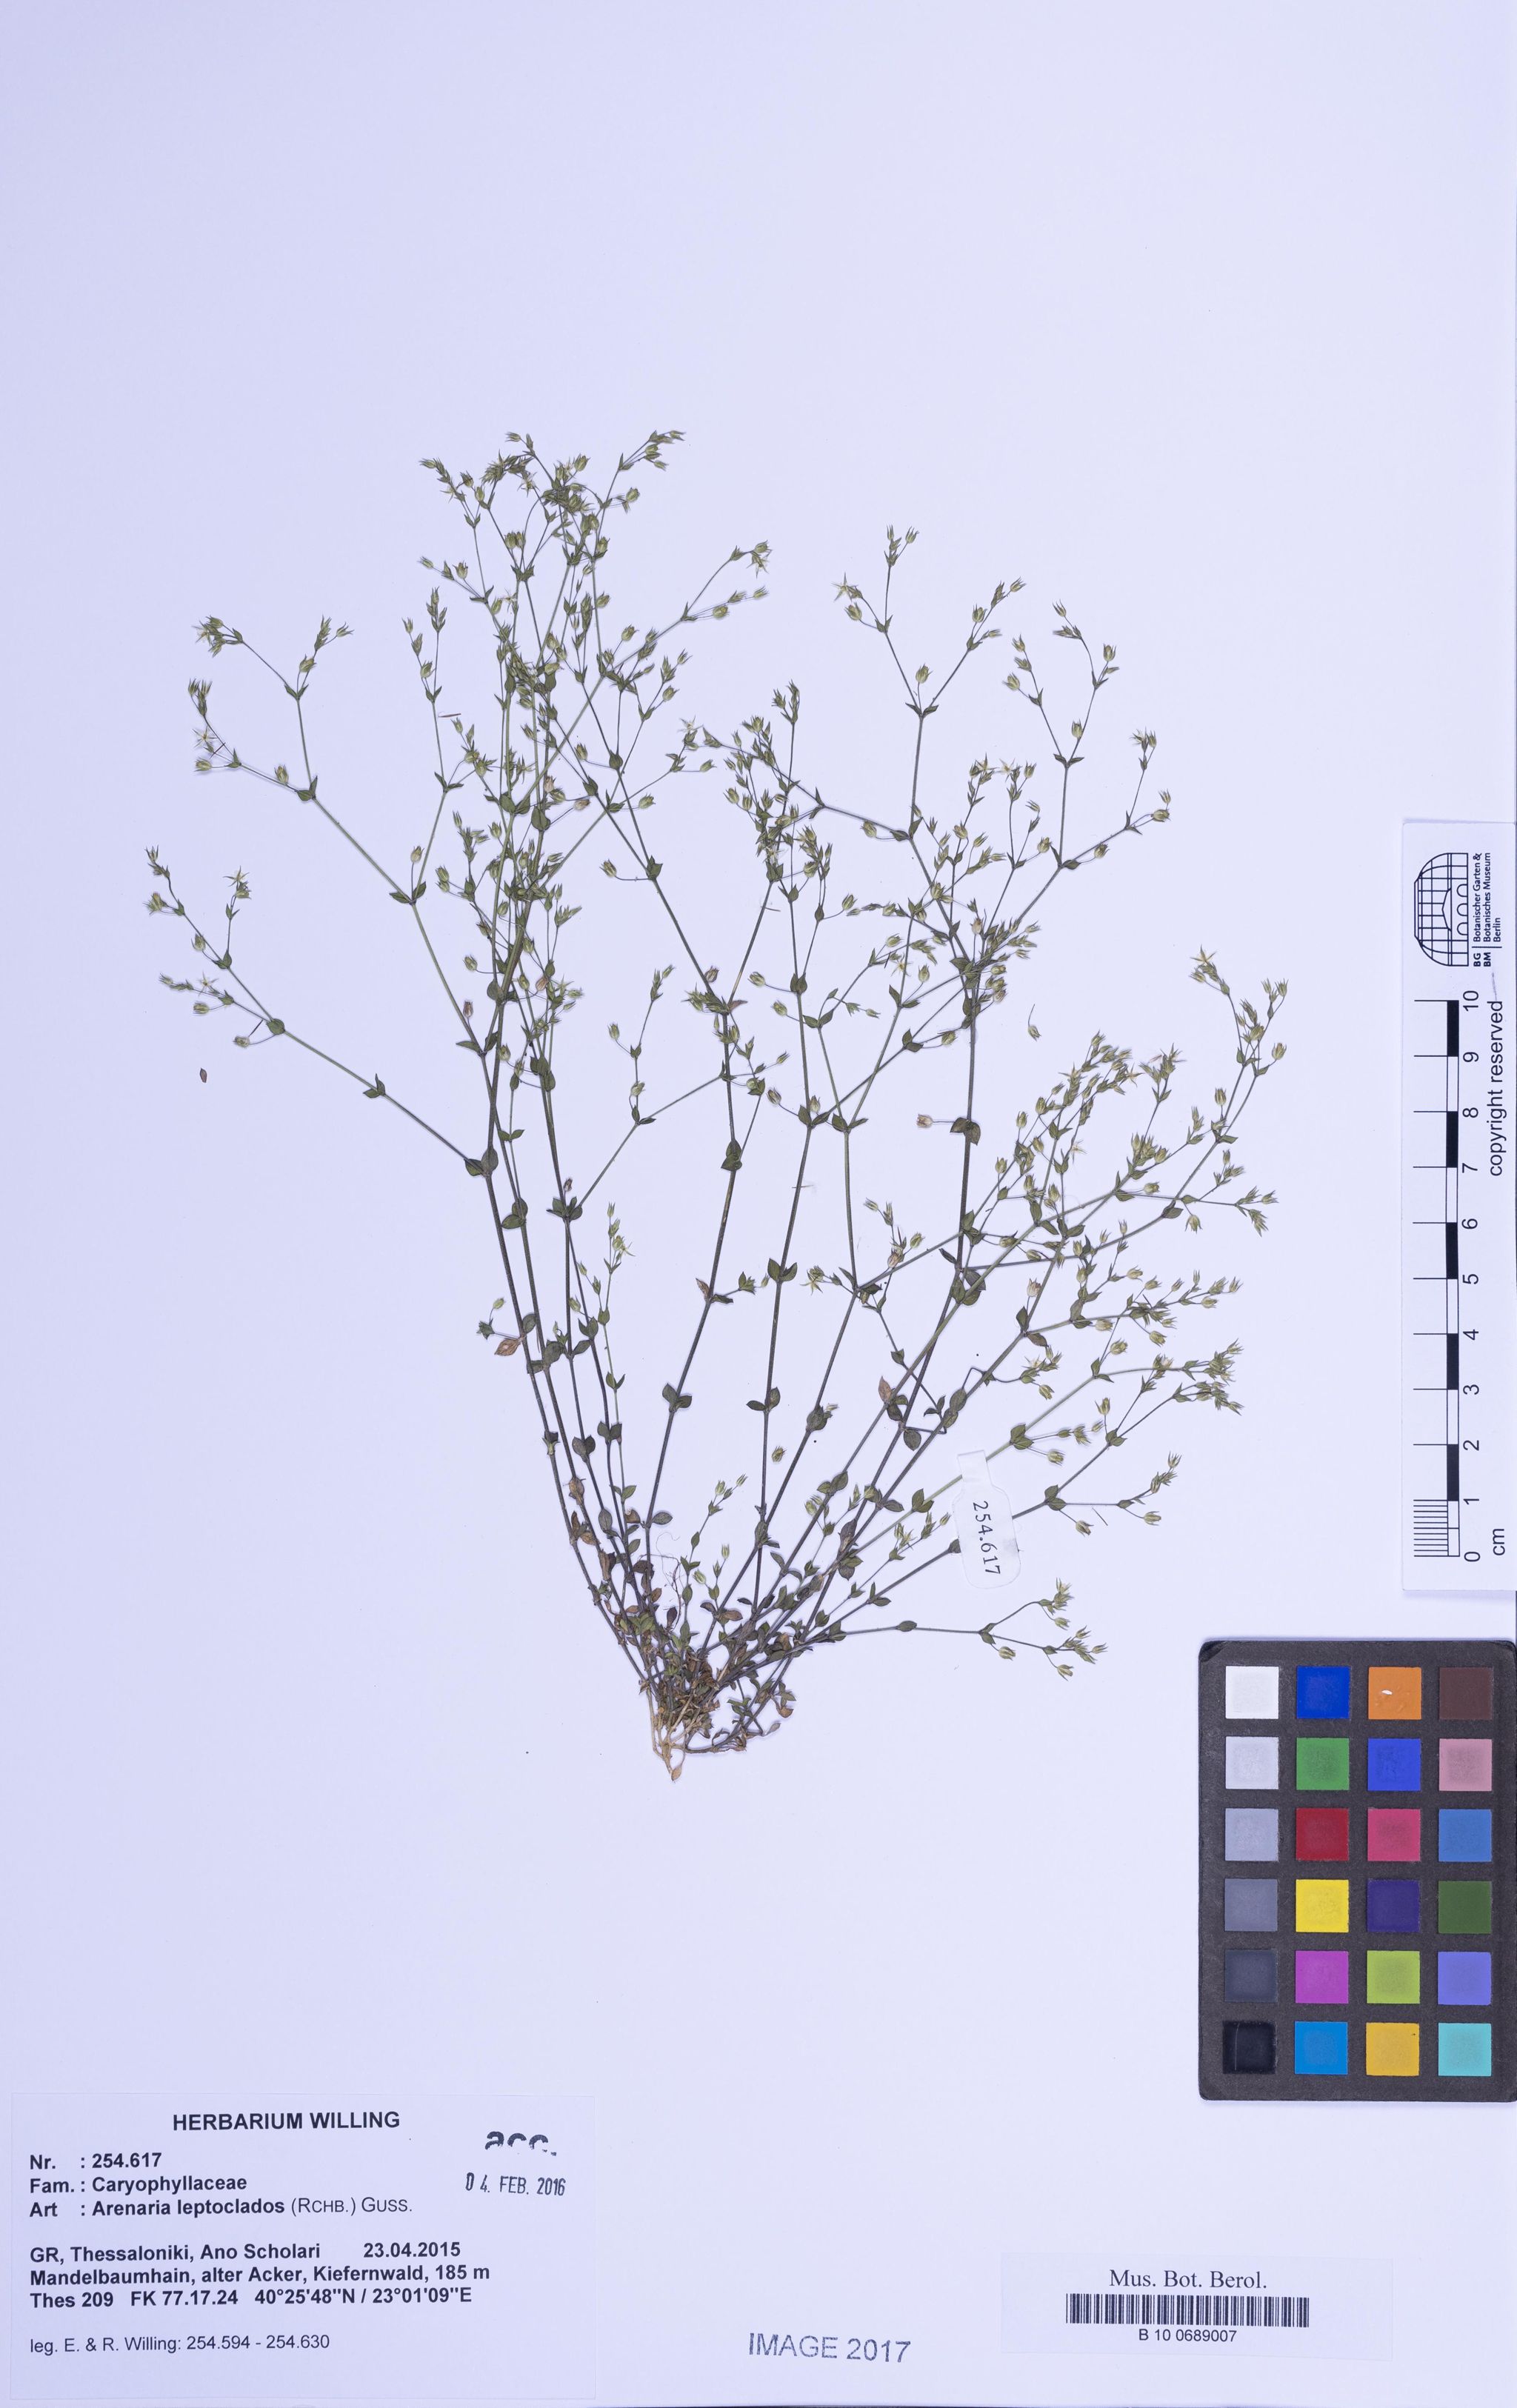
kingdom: Plantae
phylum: Tracheophyta
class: Magnoliopsida
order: Caryophyllales
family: Caryophyllaceae
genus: Arenaria
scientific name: Arenaria leptoclados
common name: Thyme-leaved sandwort
